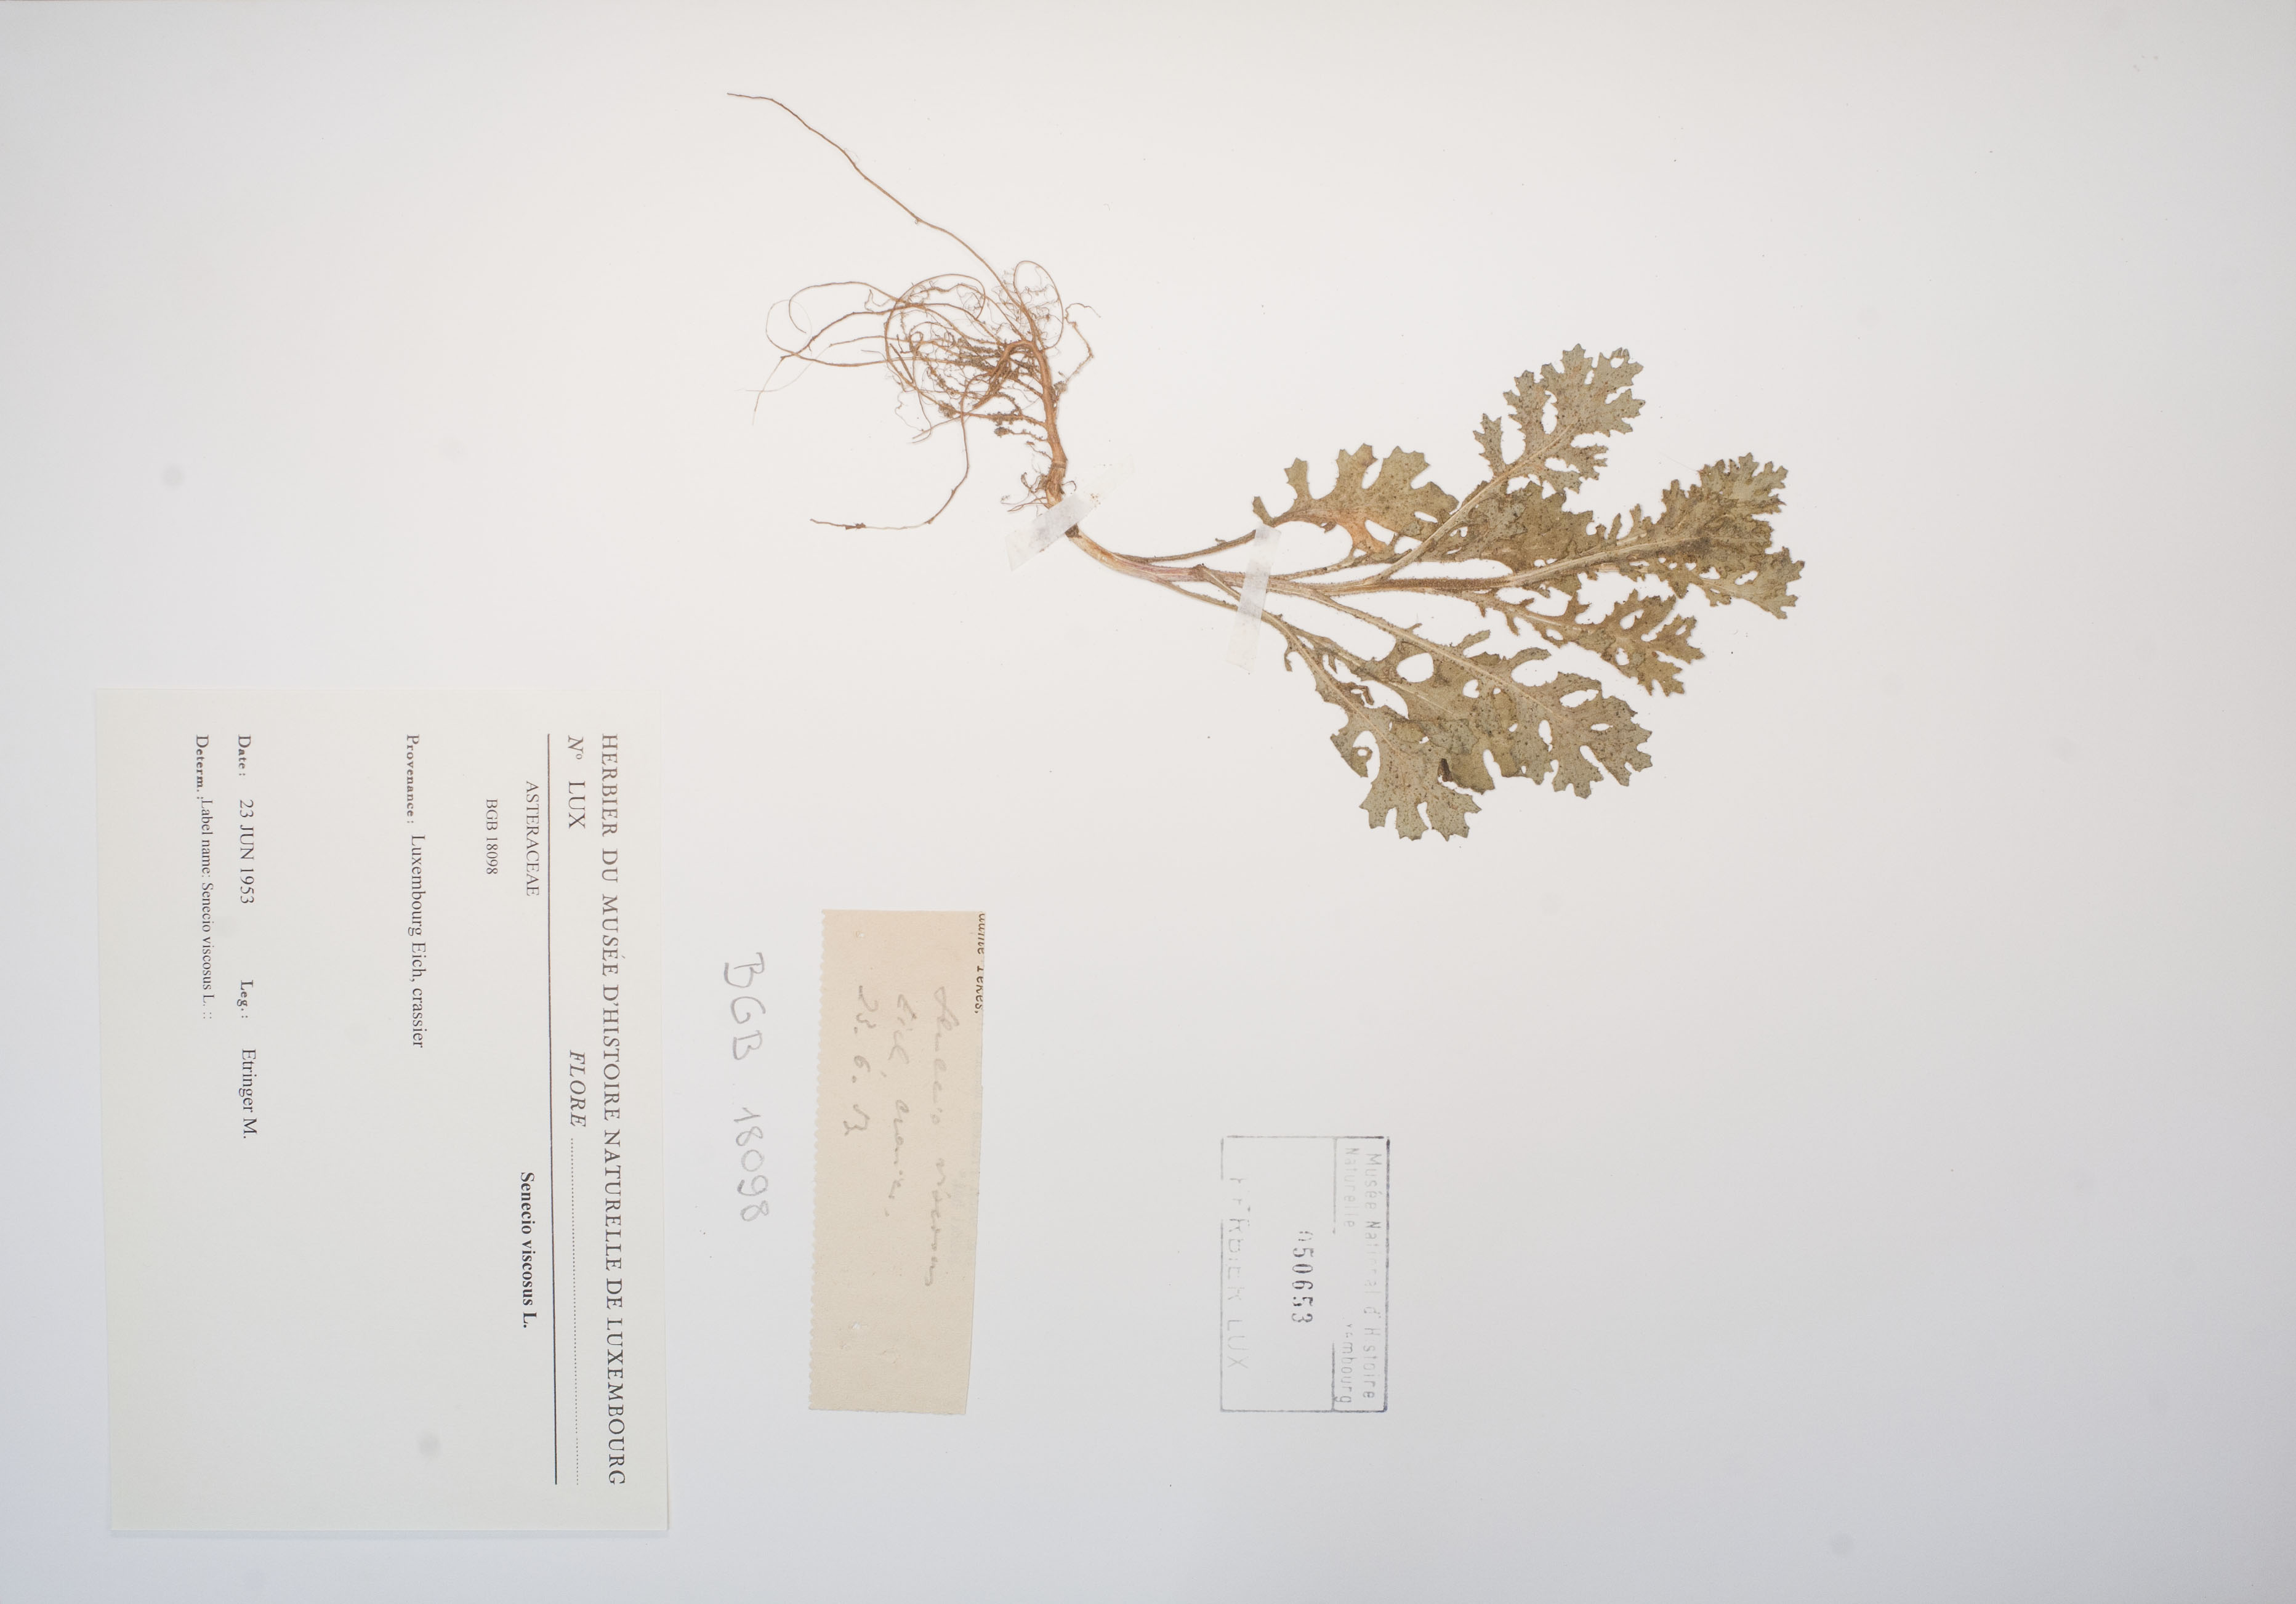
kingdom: Plantae
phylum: Tracheophyta
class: Magnoliopsida
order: Asterales
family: Asteraceae
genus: Senecio
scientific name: Senecio viscosus
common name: Sticky groundsel
